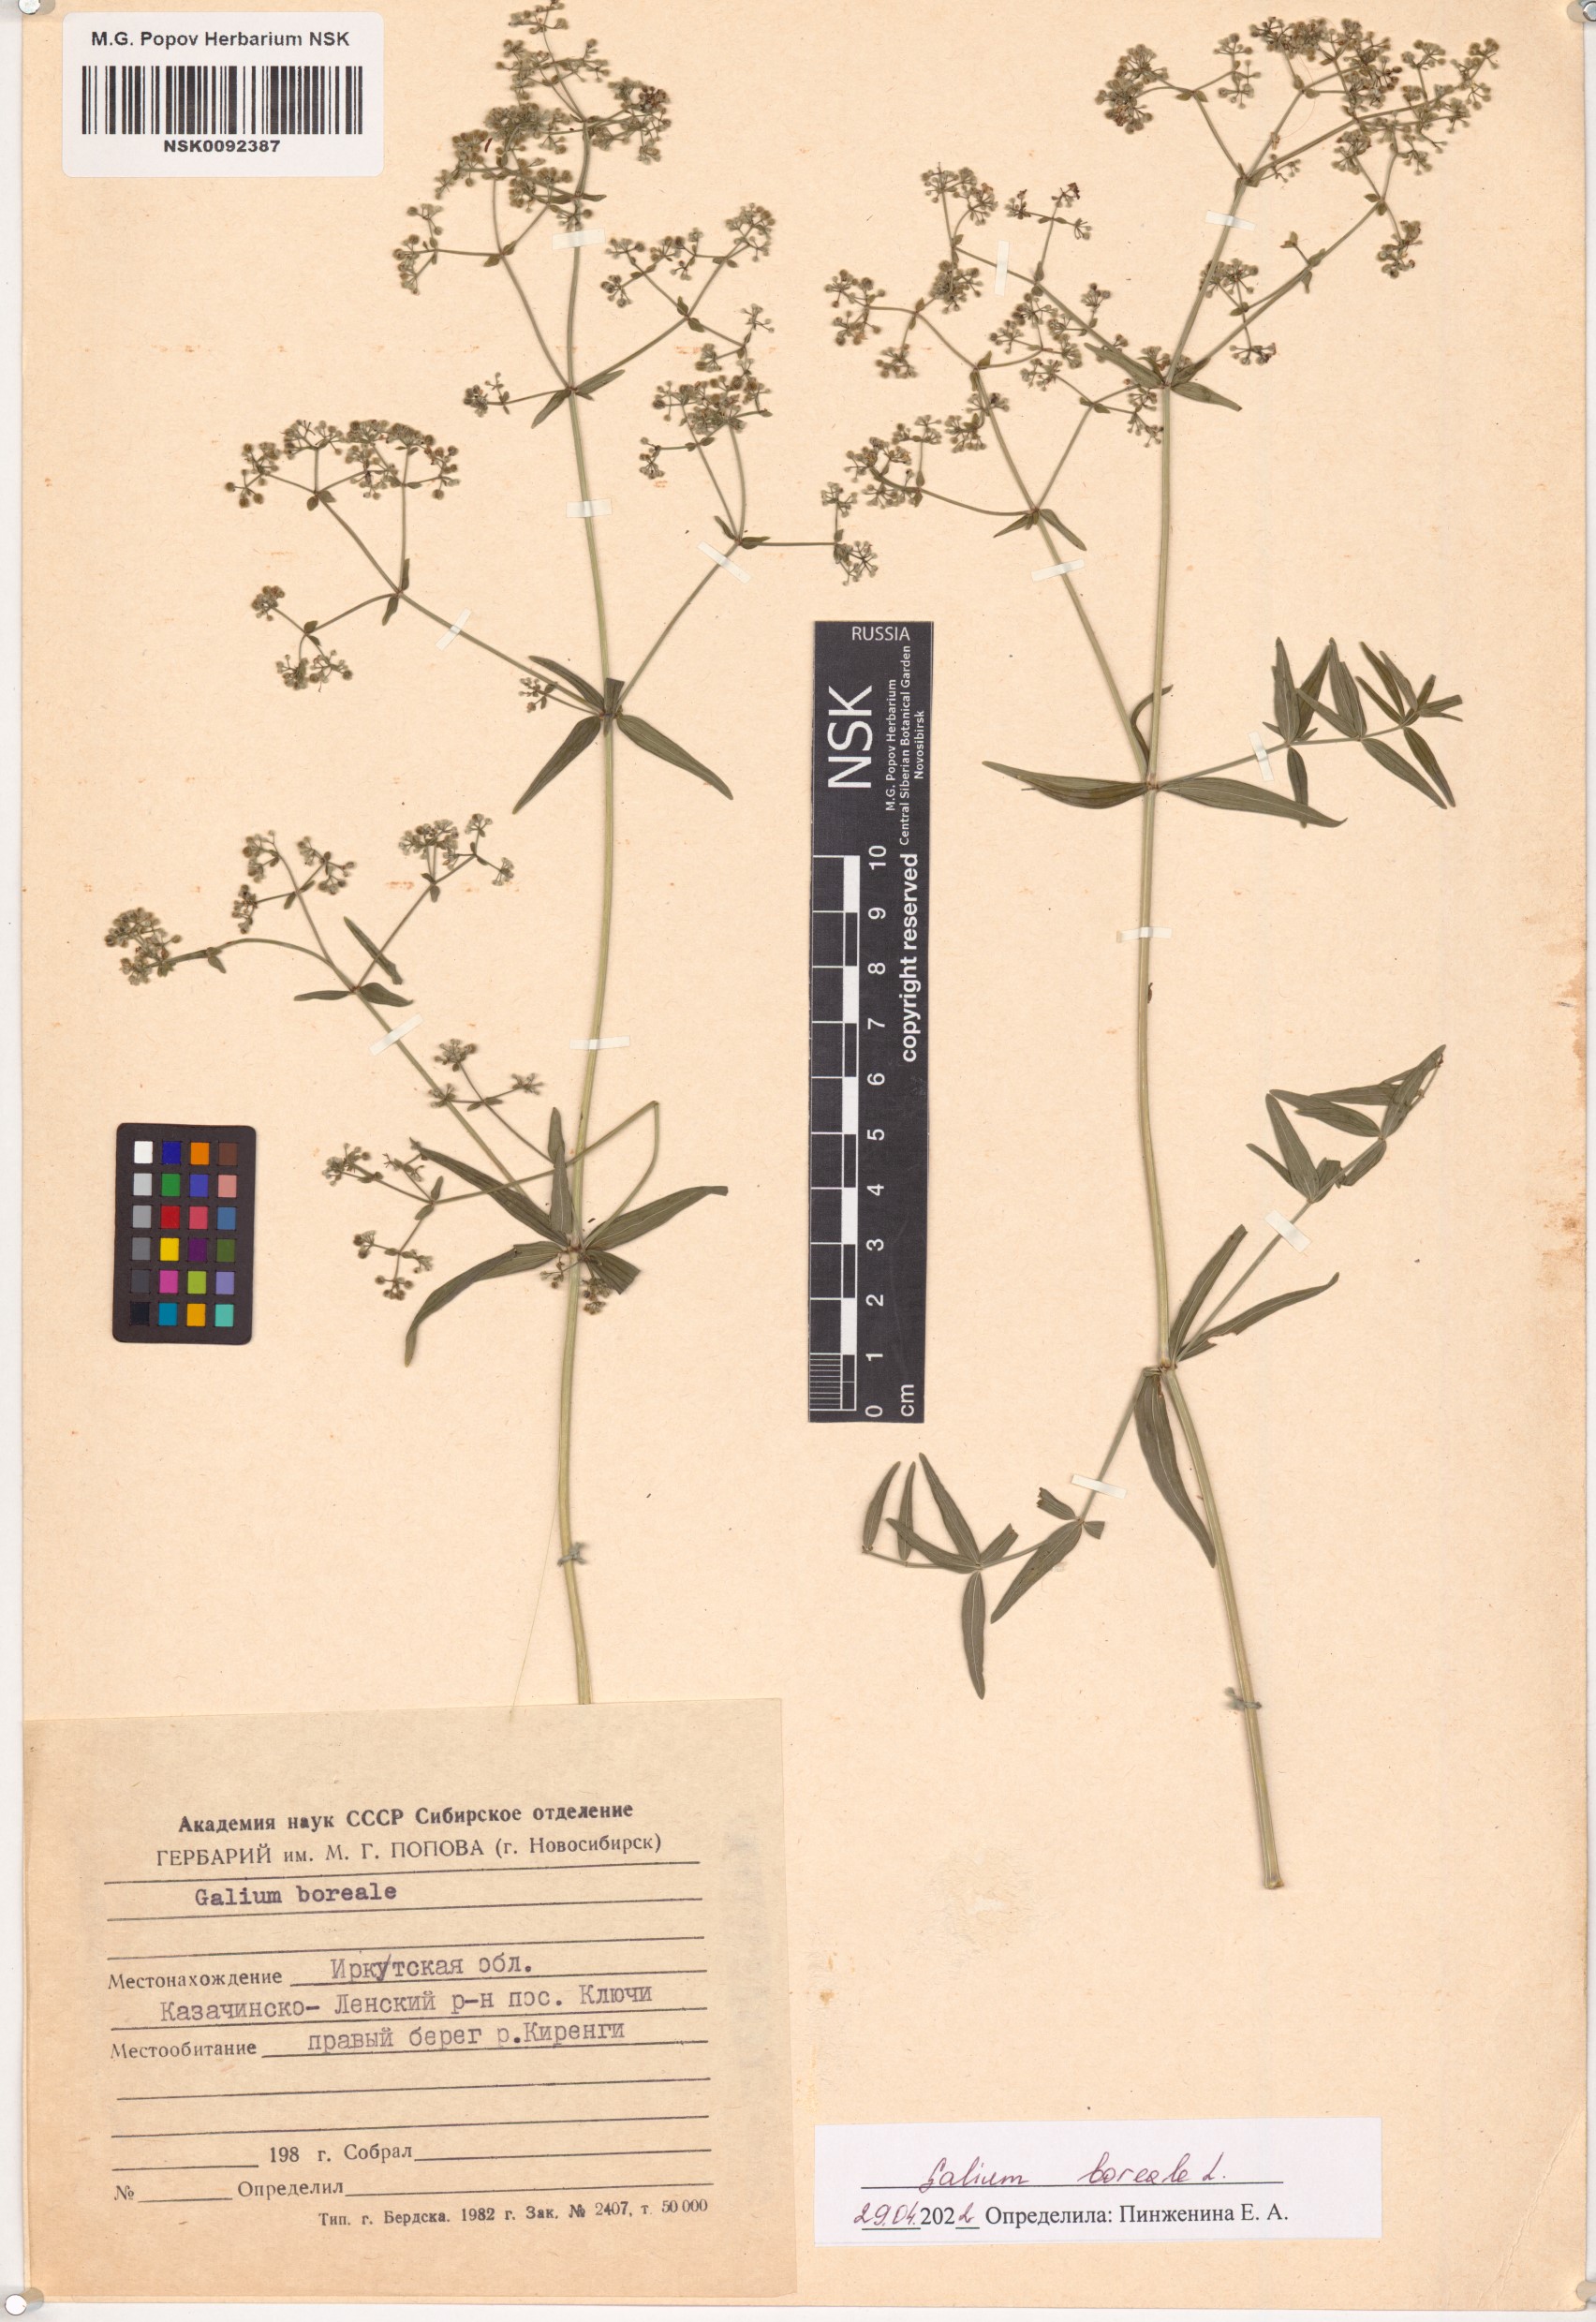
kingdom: Plantae
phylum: Tracheophyta
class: Magnoliopsida
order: Gentianales
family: Rubiaceae
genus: Galium
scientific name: Galium boreale
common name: Northern bedstraw
